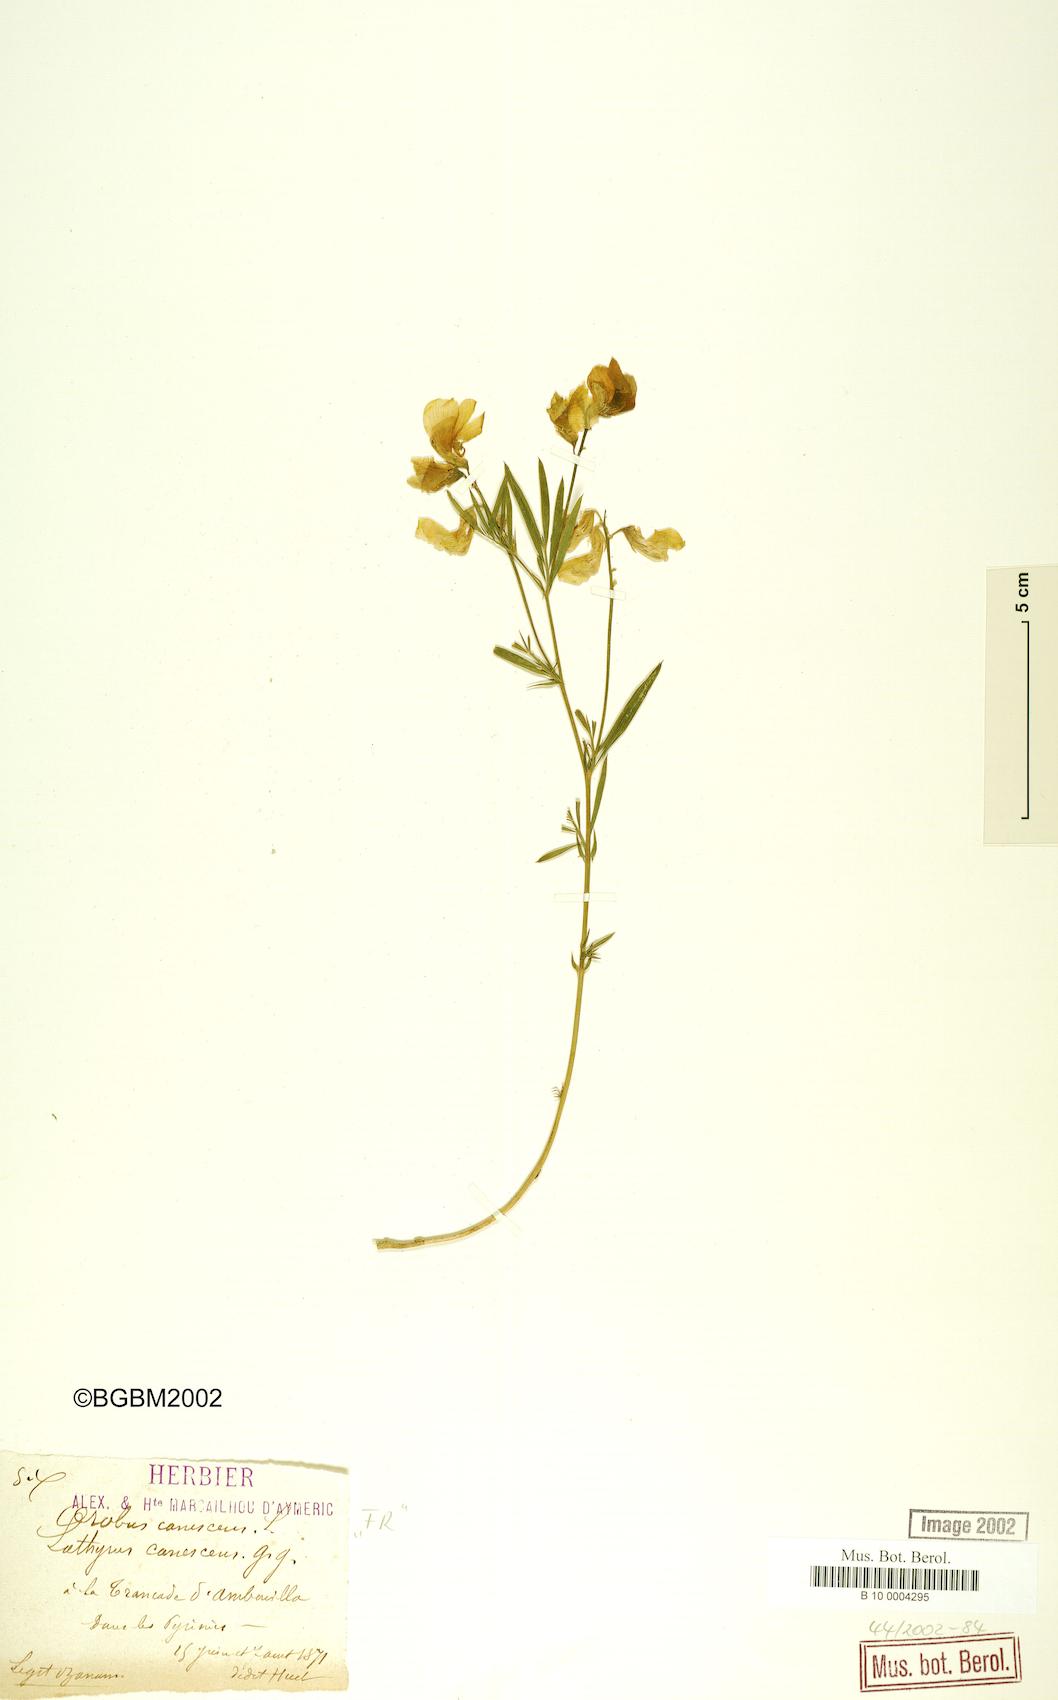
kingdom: Plantae
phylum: Tracheophyta
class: Magnoliopsida
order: Fabales
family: Fabaceae
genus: Lathyrus
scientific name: Lathyrus filiformis
